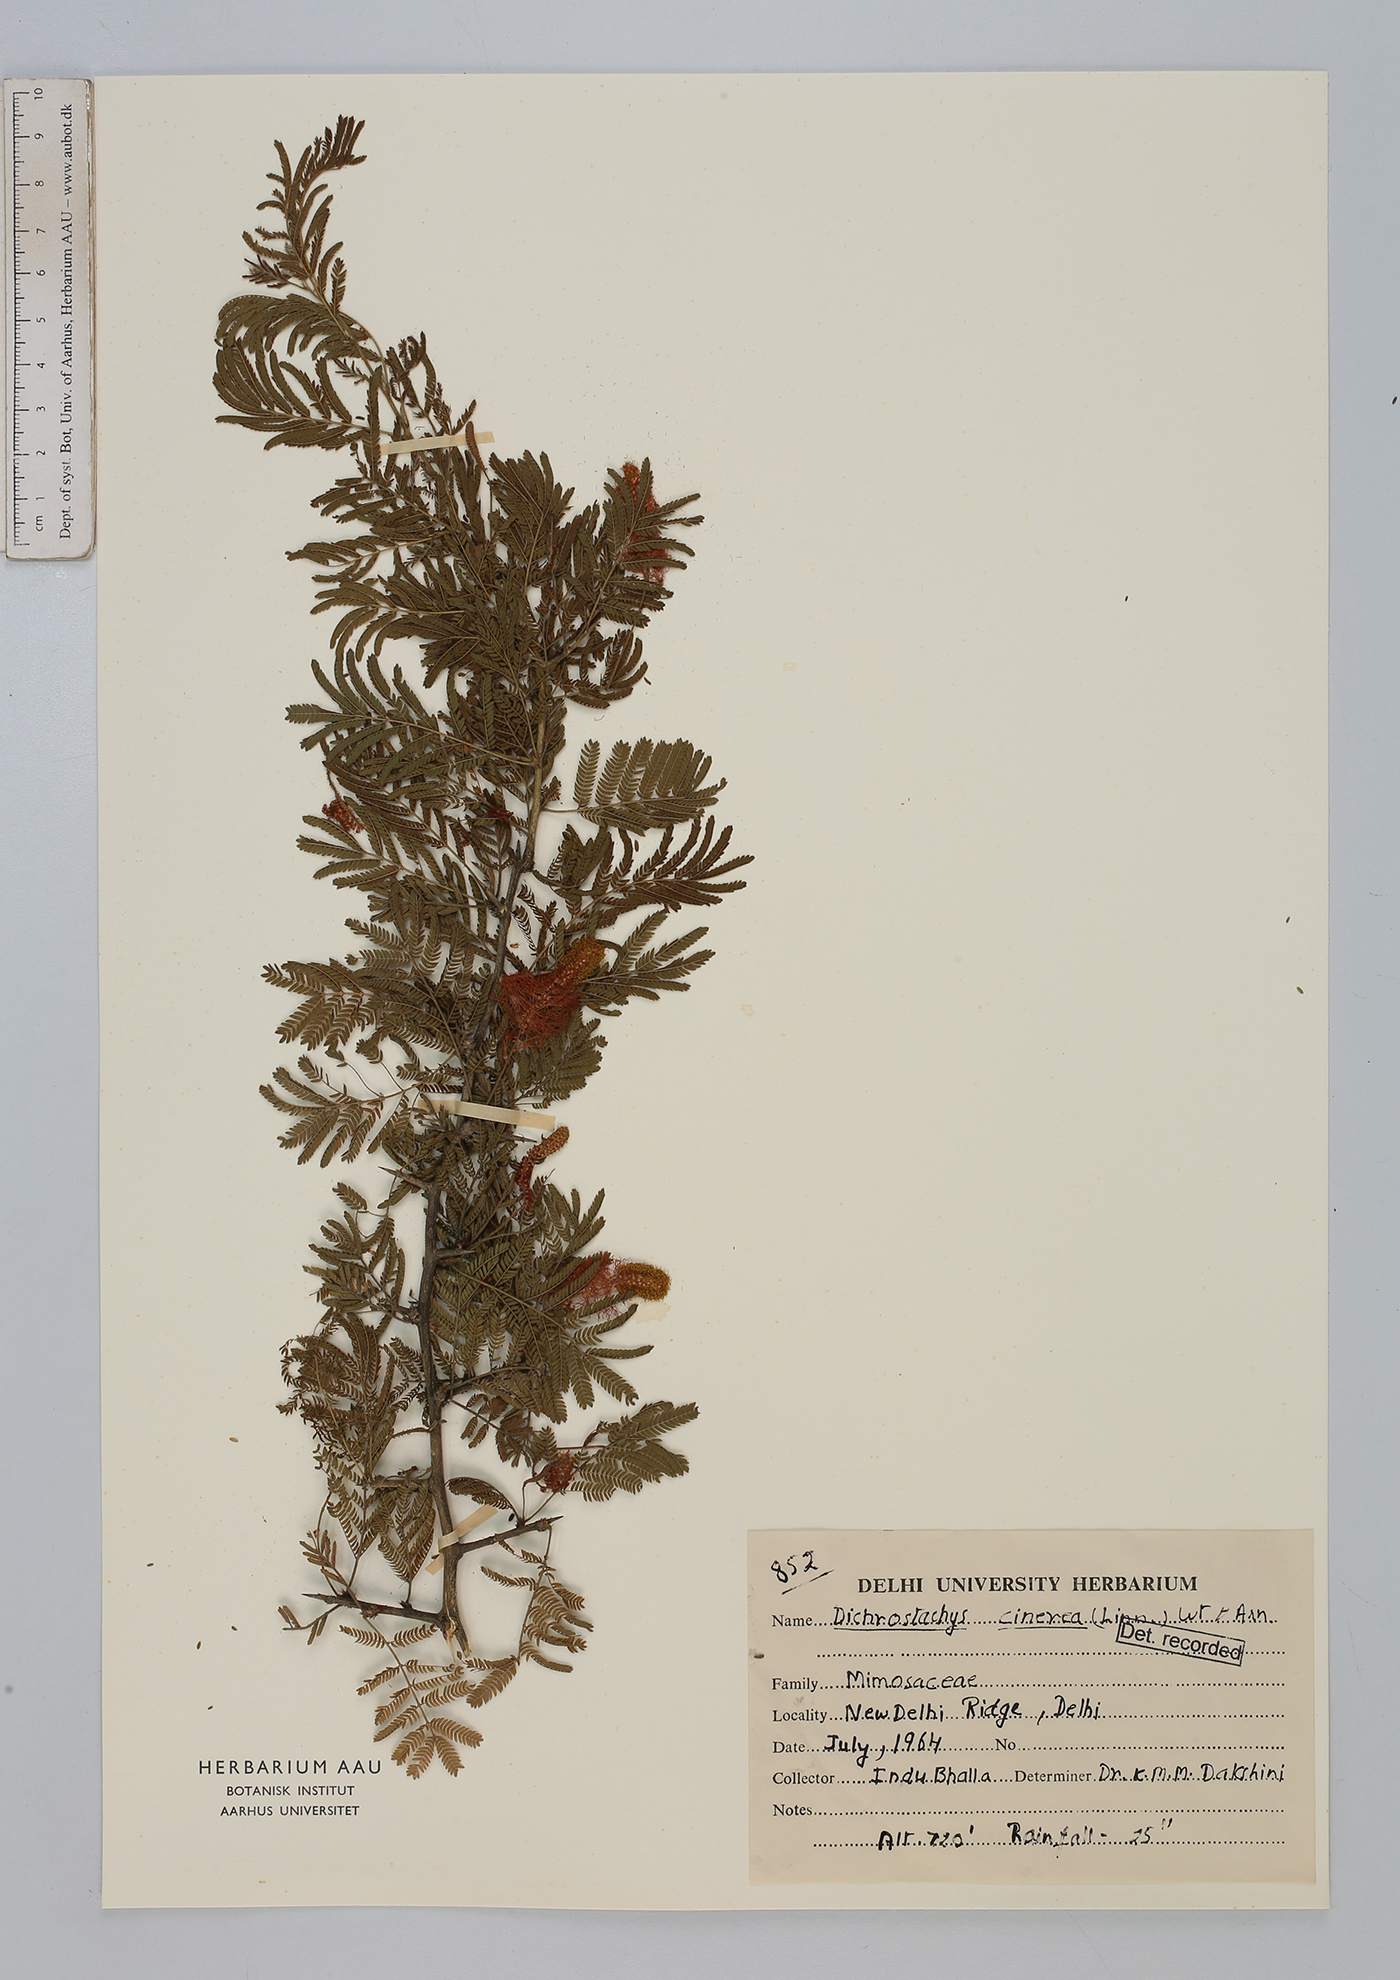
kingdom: Plantae
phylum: Tracheophyta
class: Magnoliopsida
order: Fabales
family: Fabaceae
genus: Dichrostachys
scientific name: Dichrostachys cinerea
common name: Sicklebush
